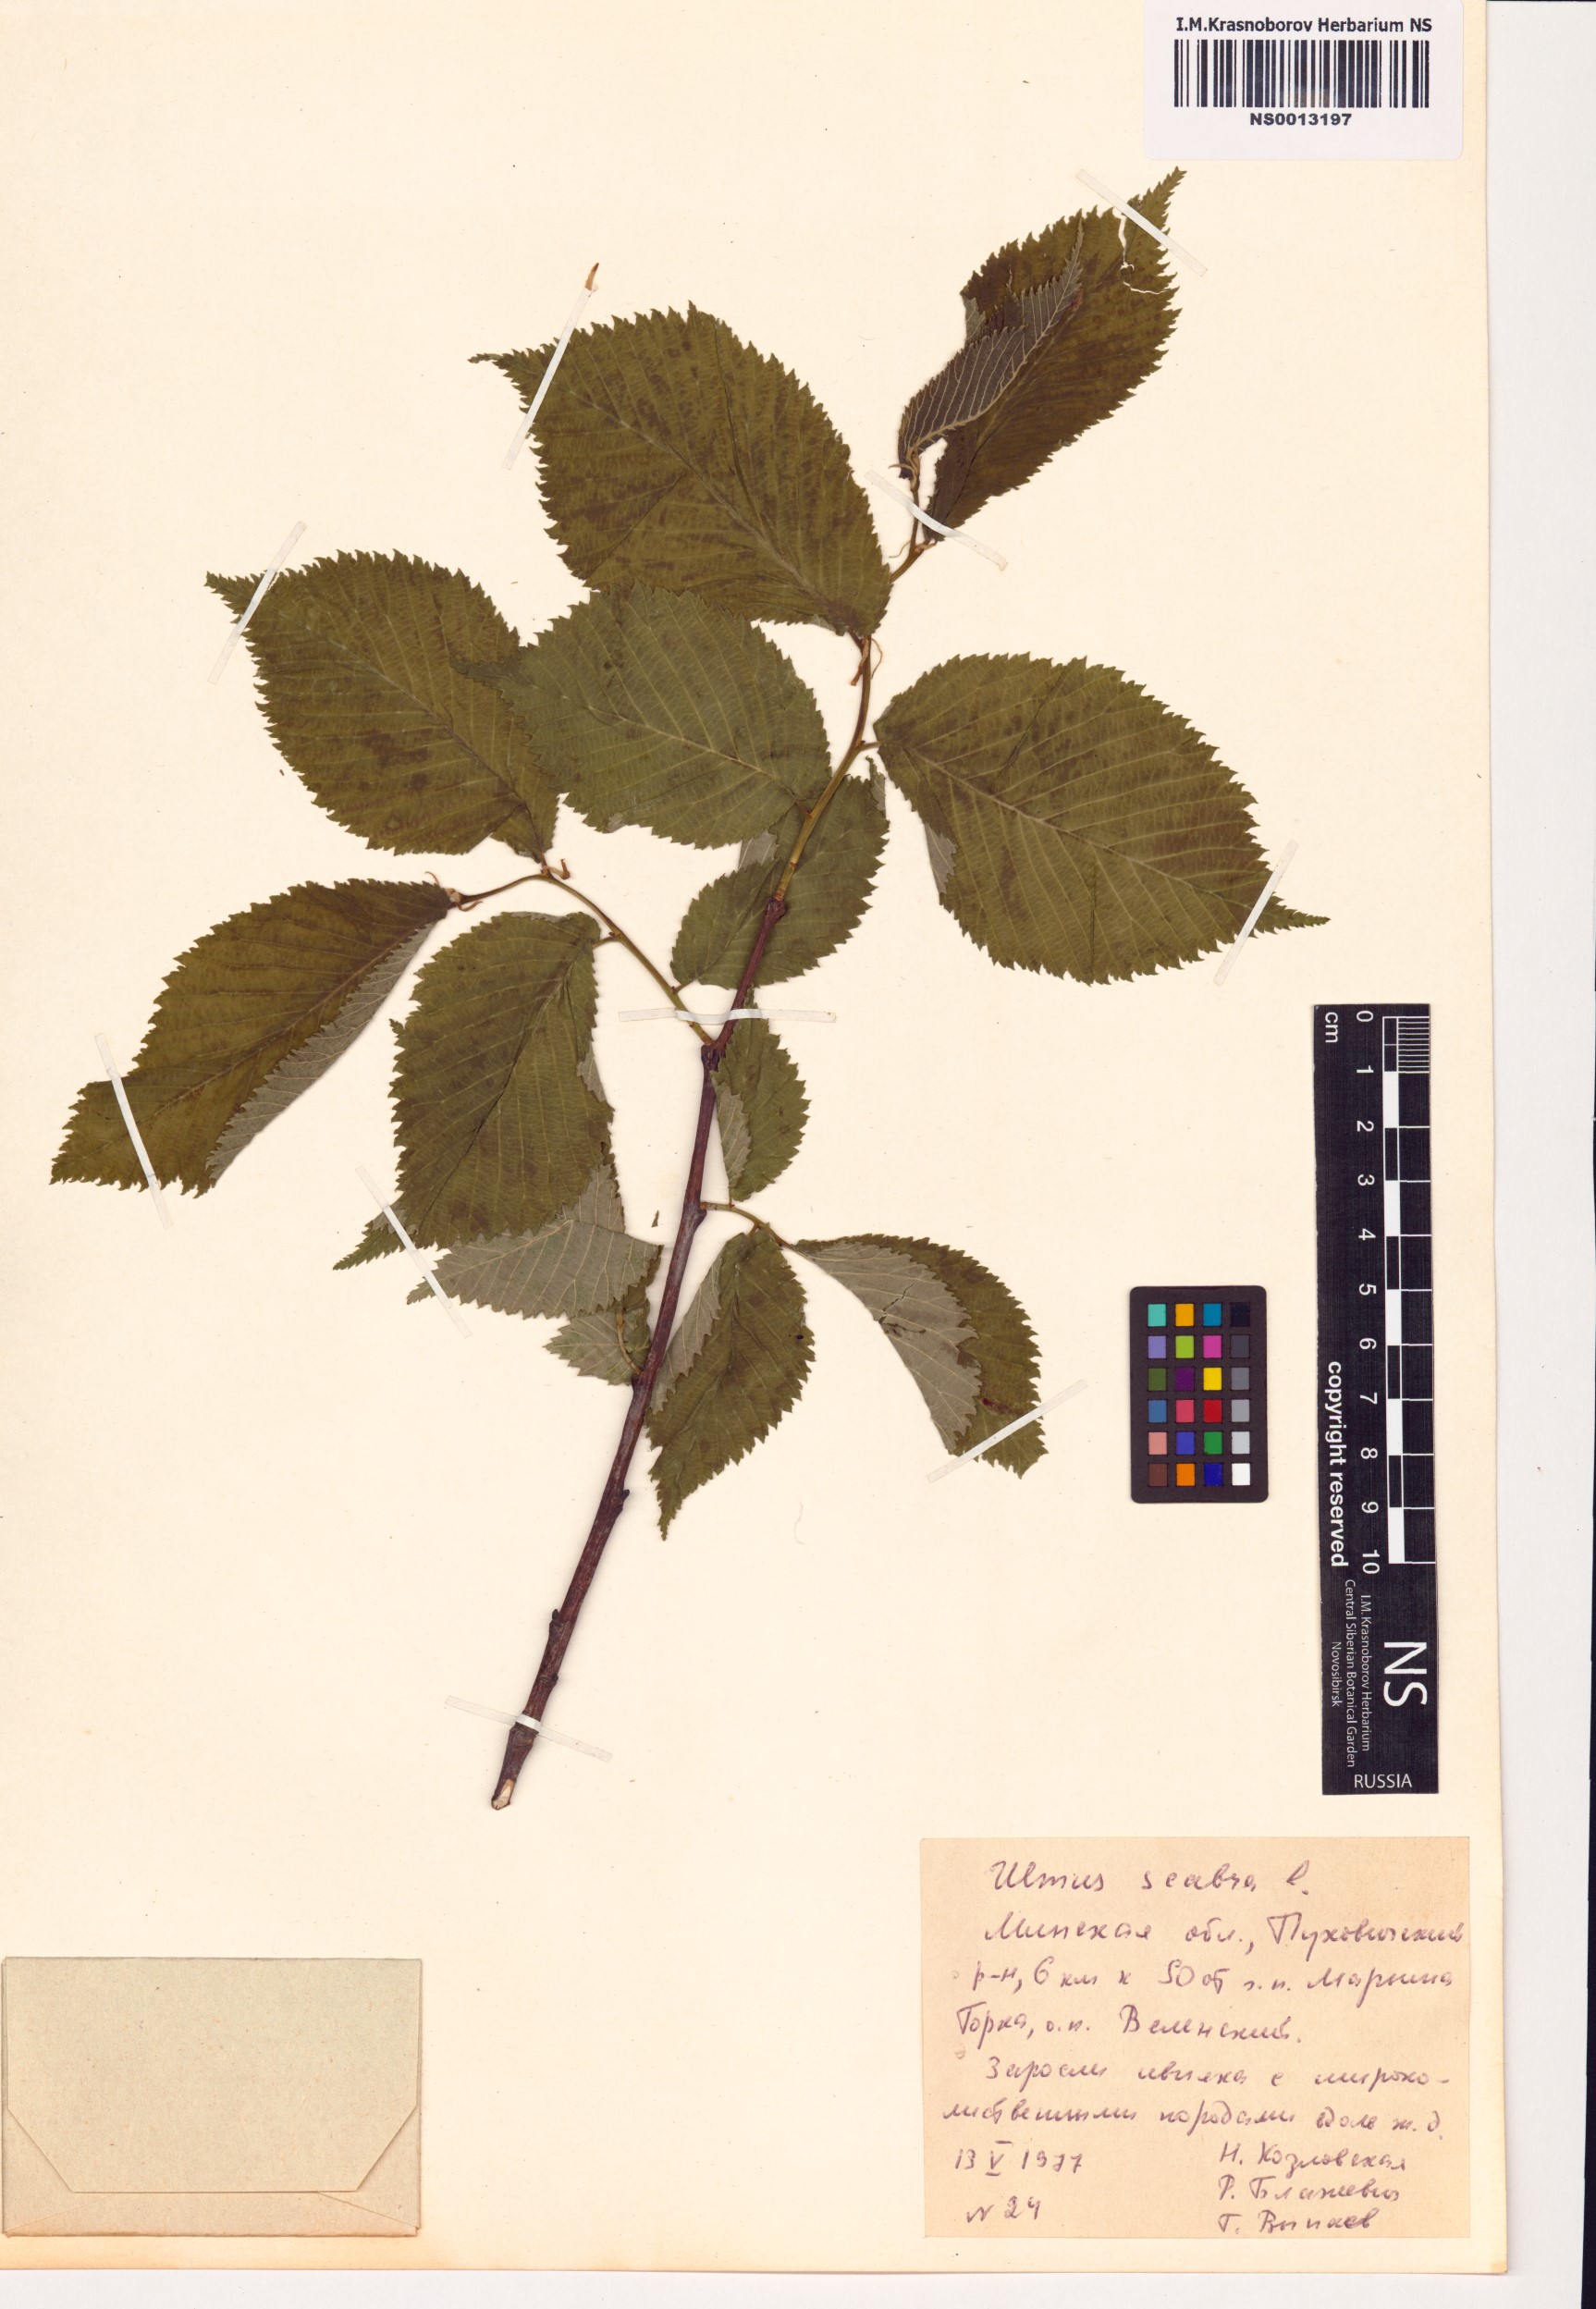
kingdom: Plantae
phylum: Tracheophyta
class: Magnoliopsida
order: Rosales
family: Ulmaceae
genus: Ulmus
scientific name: Ulmus glabra
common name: Wych elm
